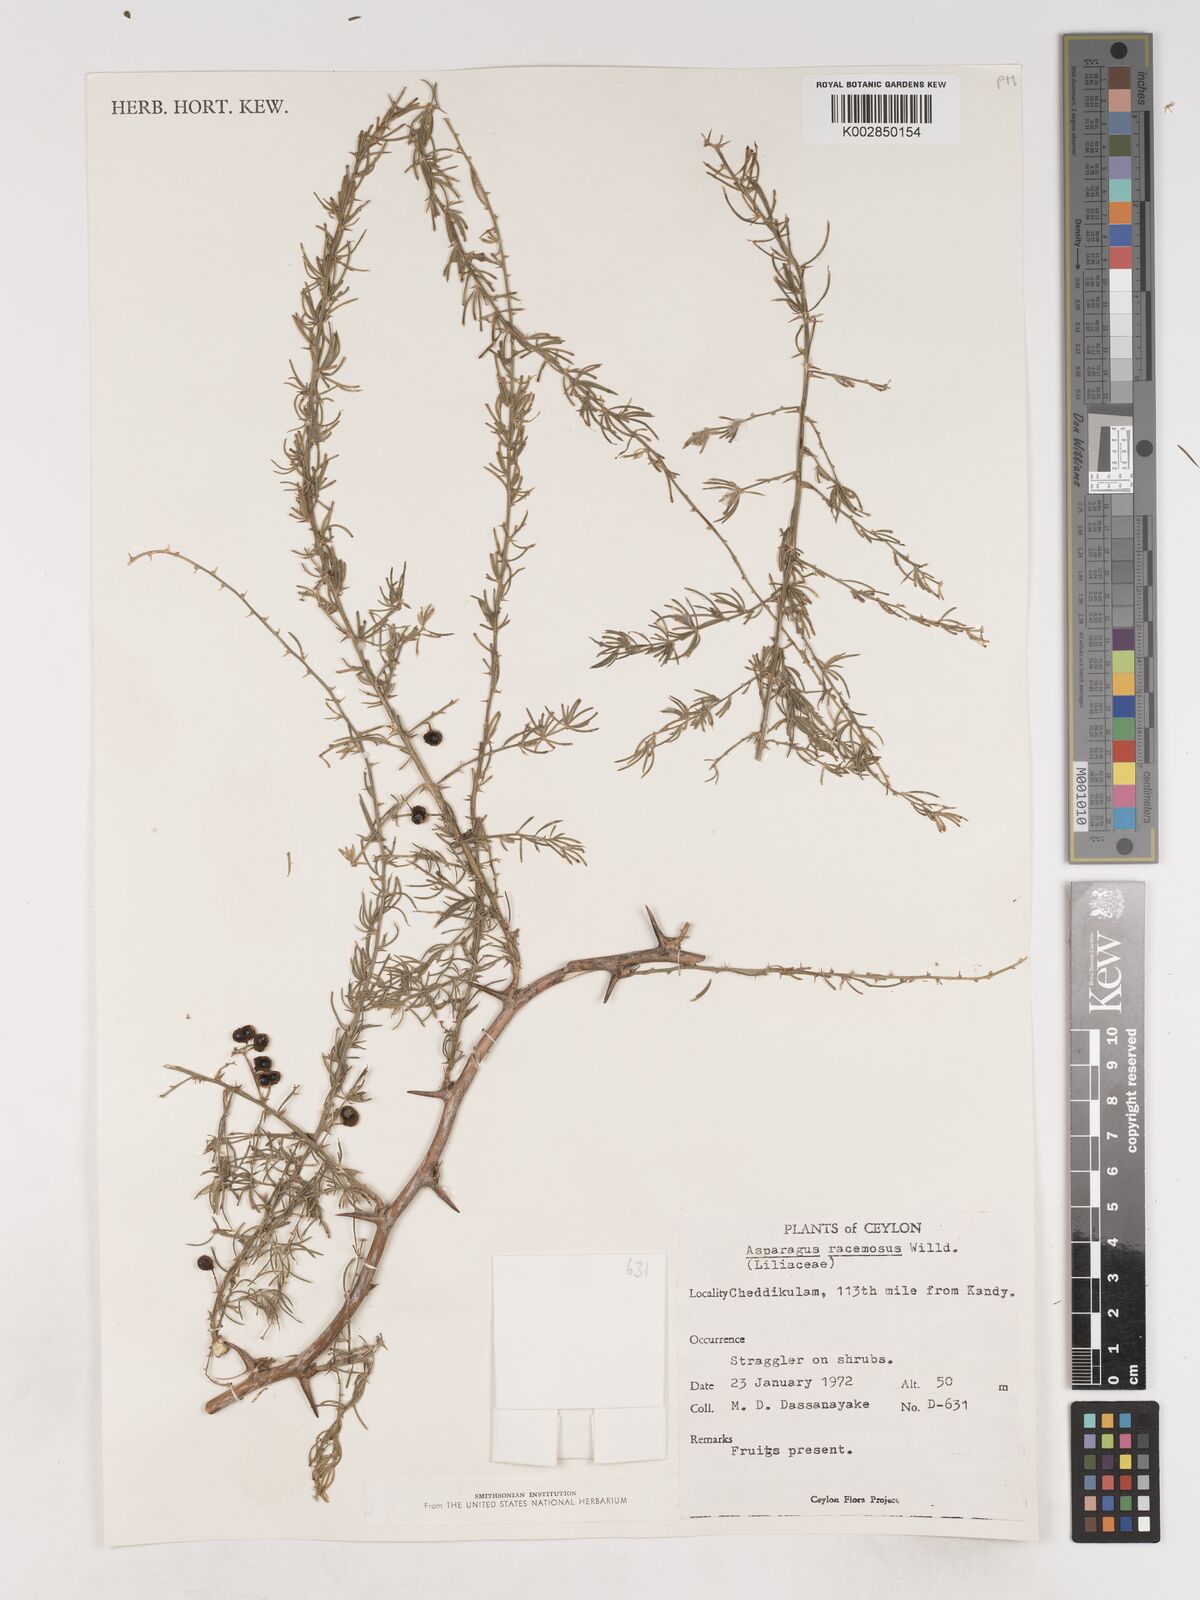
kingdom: Plantae
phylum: Tracheophyta
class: Liliopsida
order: Asparagales
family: Asparagaceae
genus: Asparagus
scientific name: Asparagus racemosus
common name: Asparagus-fern
